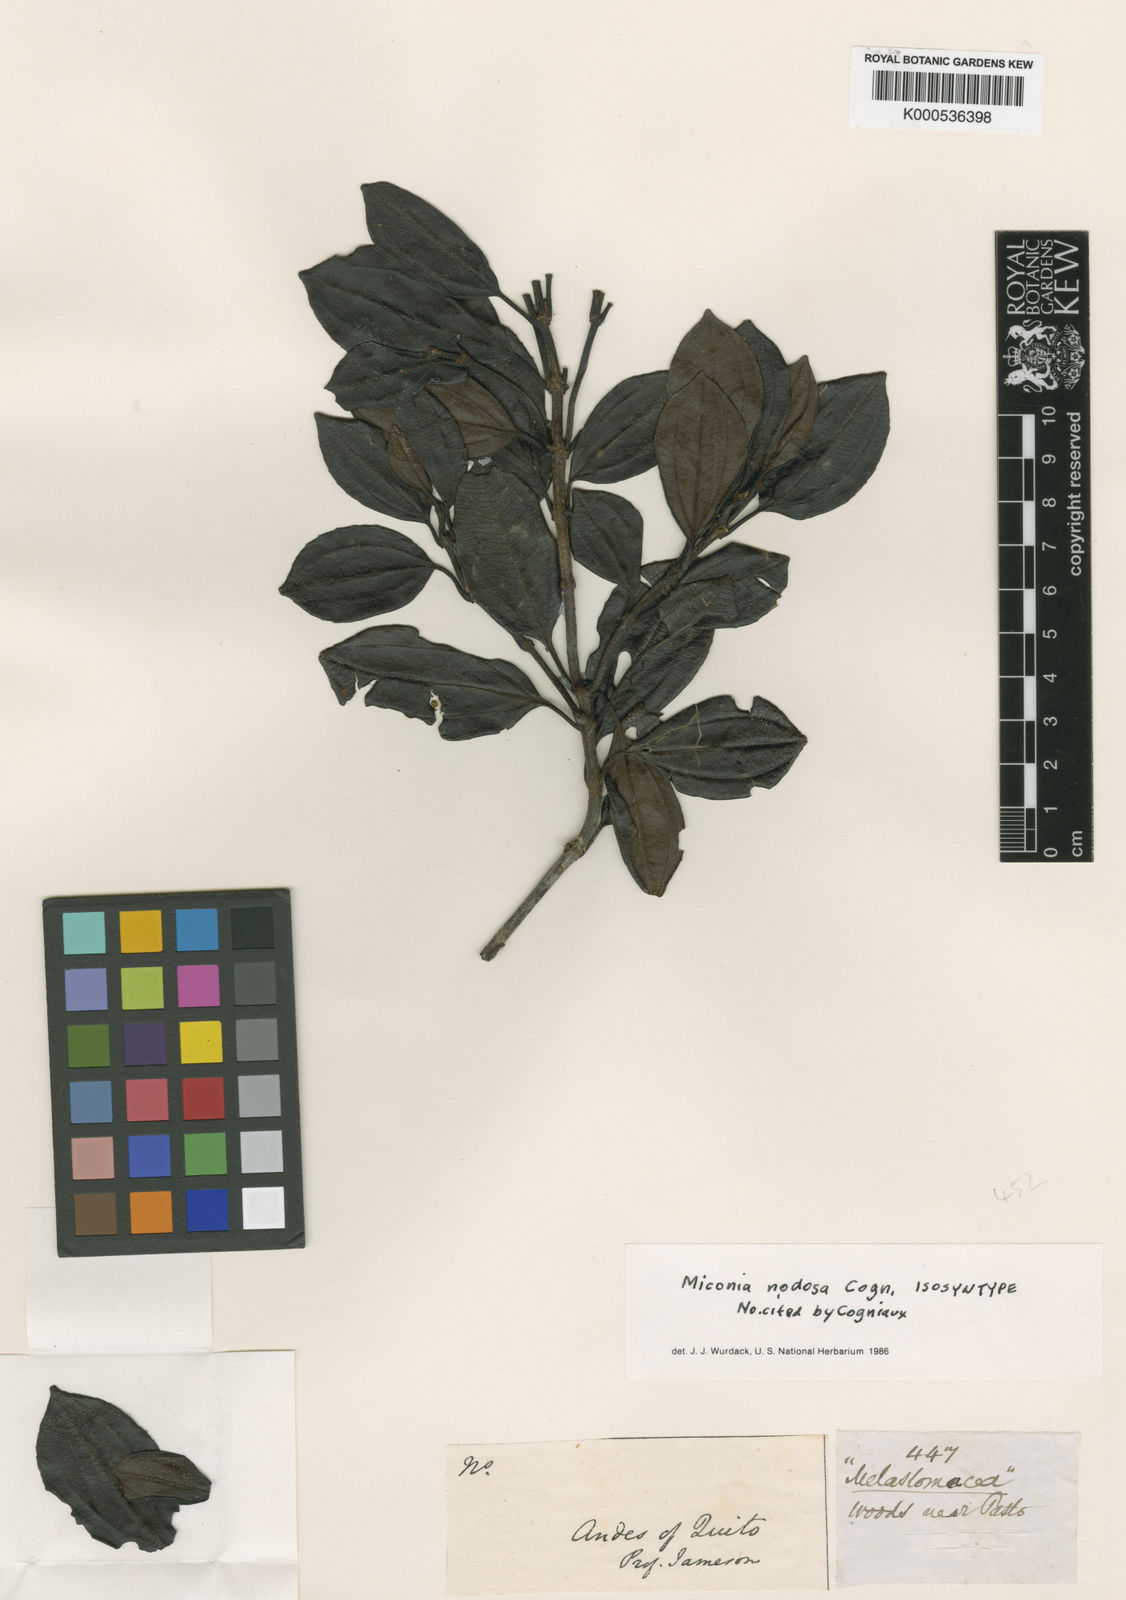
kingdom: Plantae
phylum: Tracheophyta
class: Magnoliopsida
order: Myrtales
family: Melastomataceae
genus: Miconia
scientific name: Miconia nodosa
